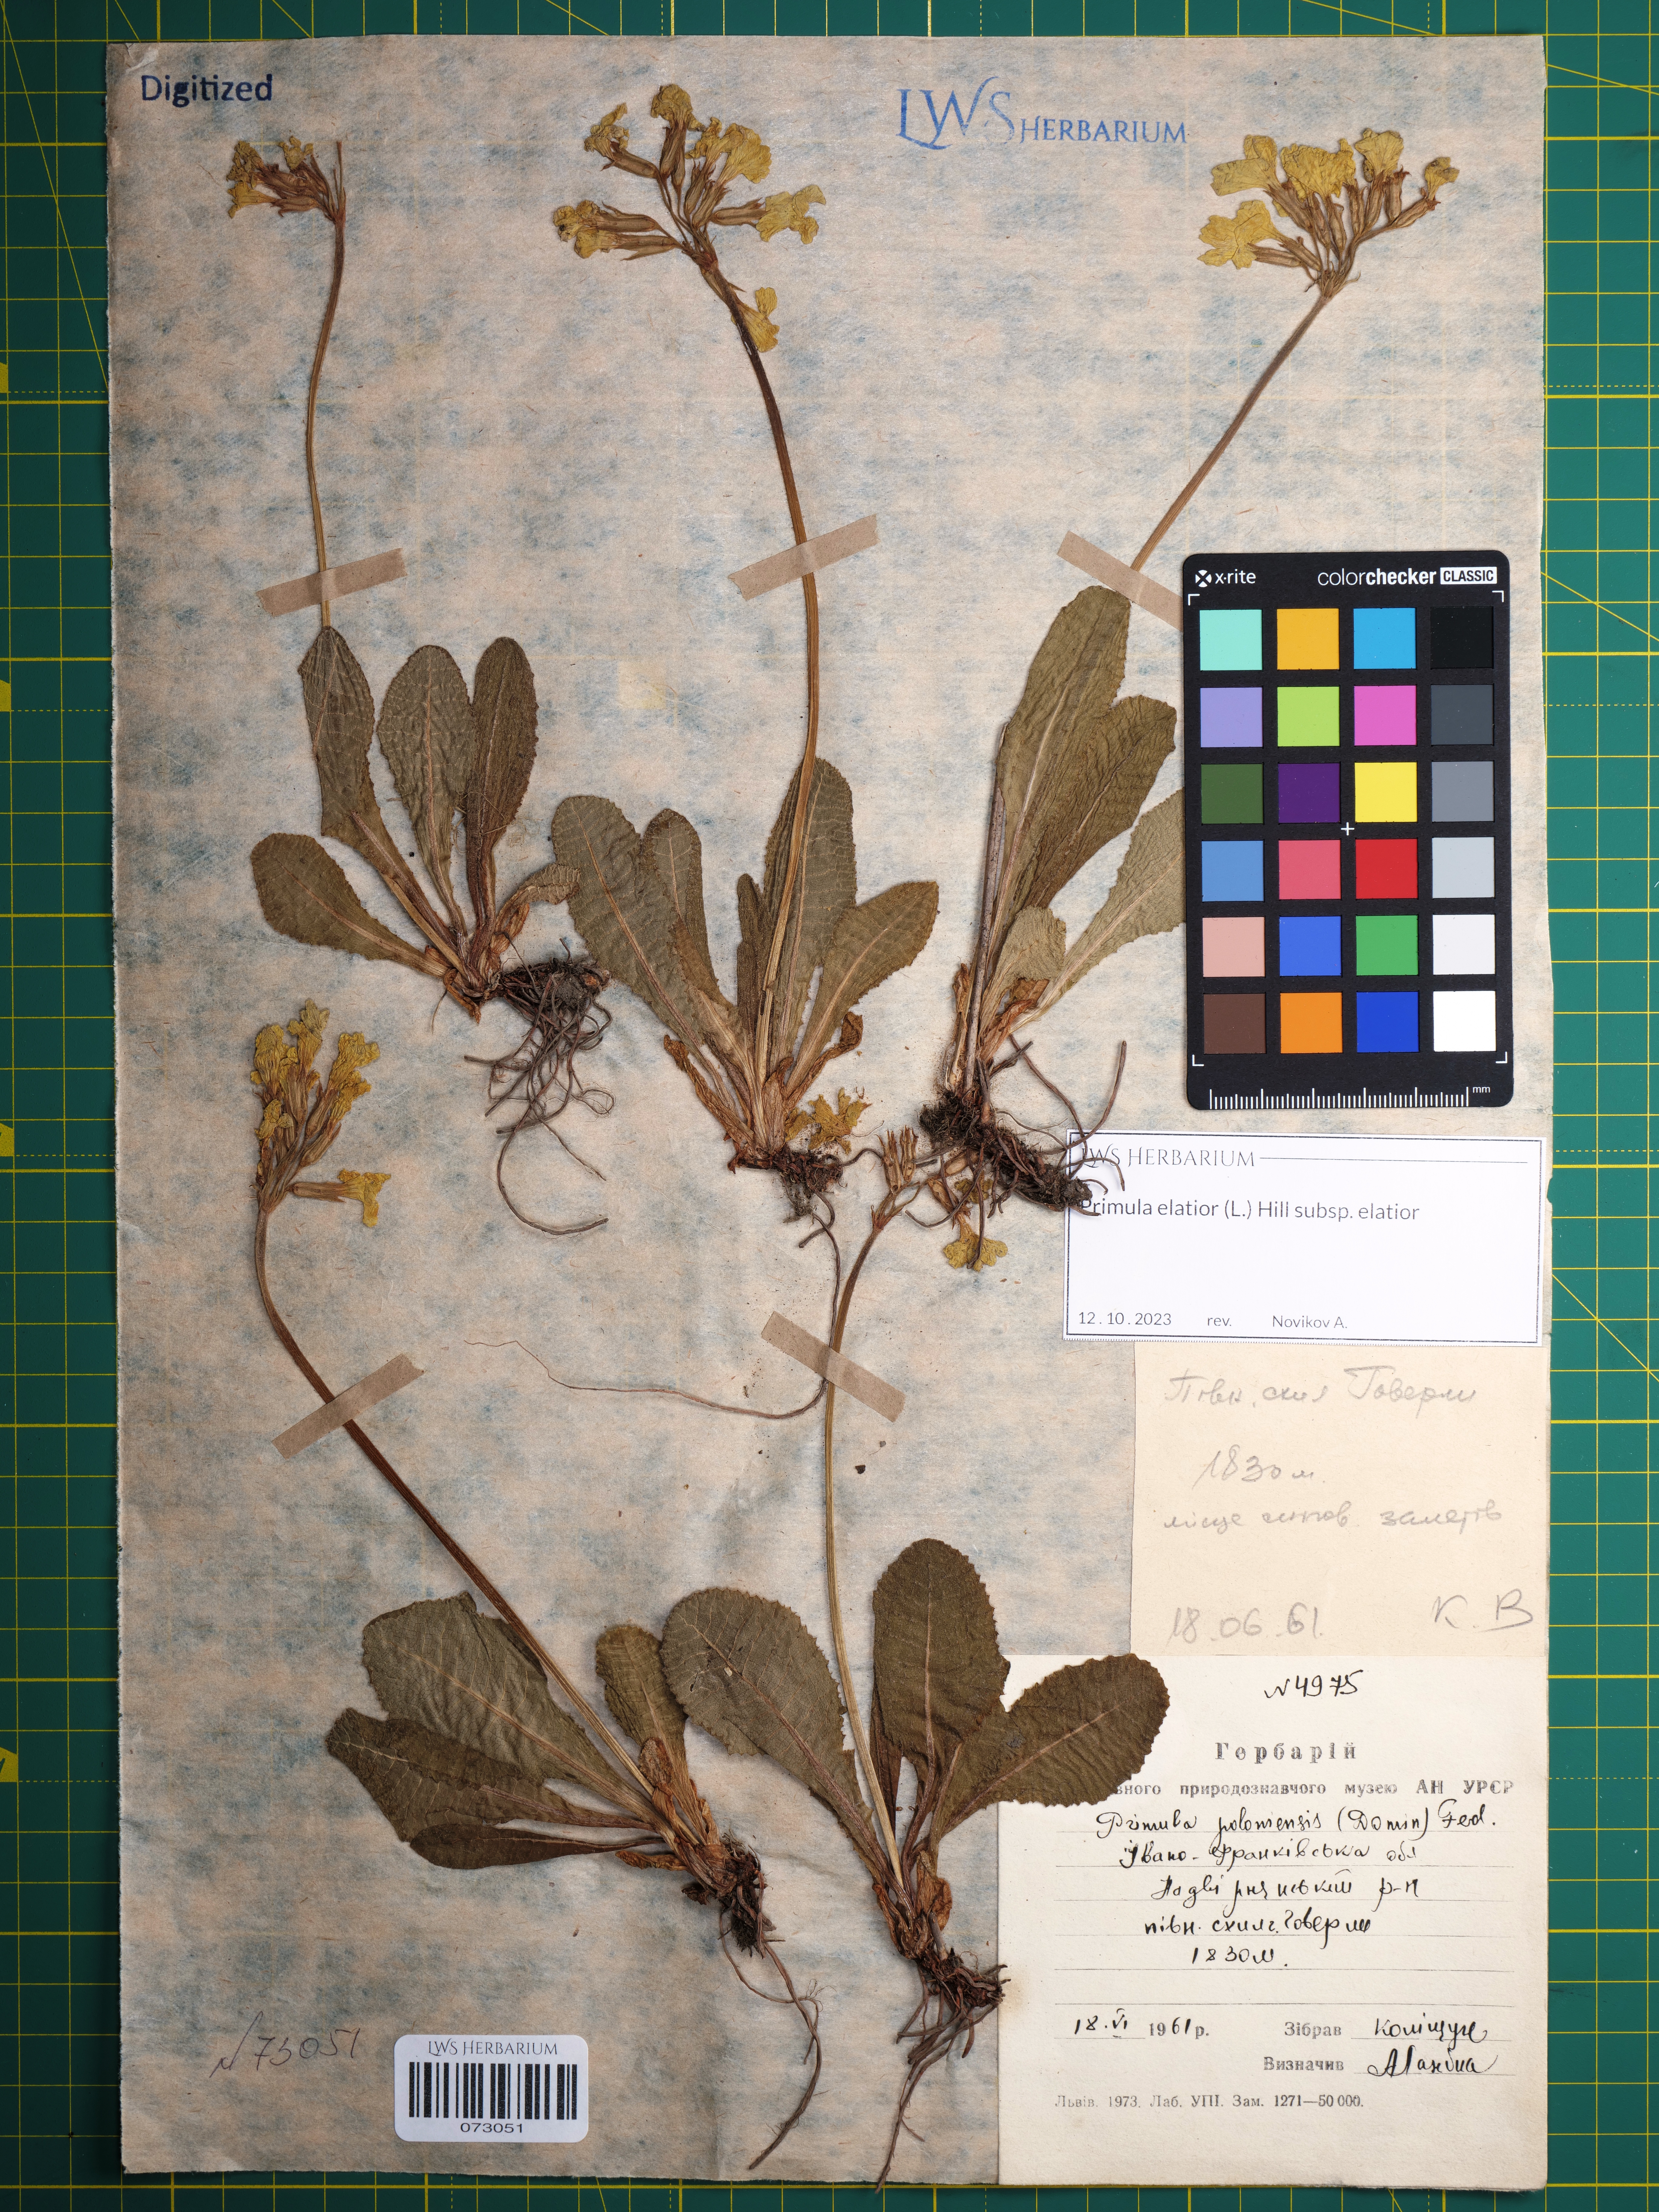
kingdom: Plantae
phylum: Tracheophyta
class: Magnoliopsida
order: Ericales
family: Primulaceae
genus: Primula
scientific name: Primula elatior
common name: Oxlip
